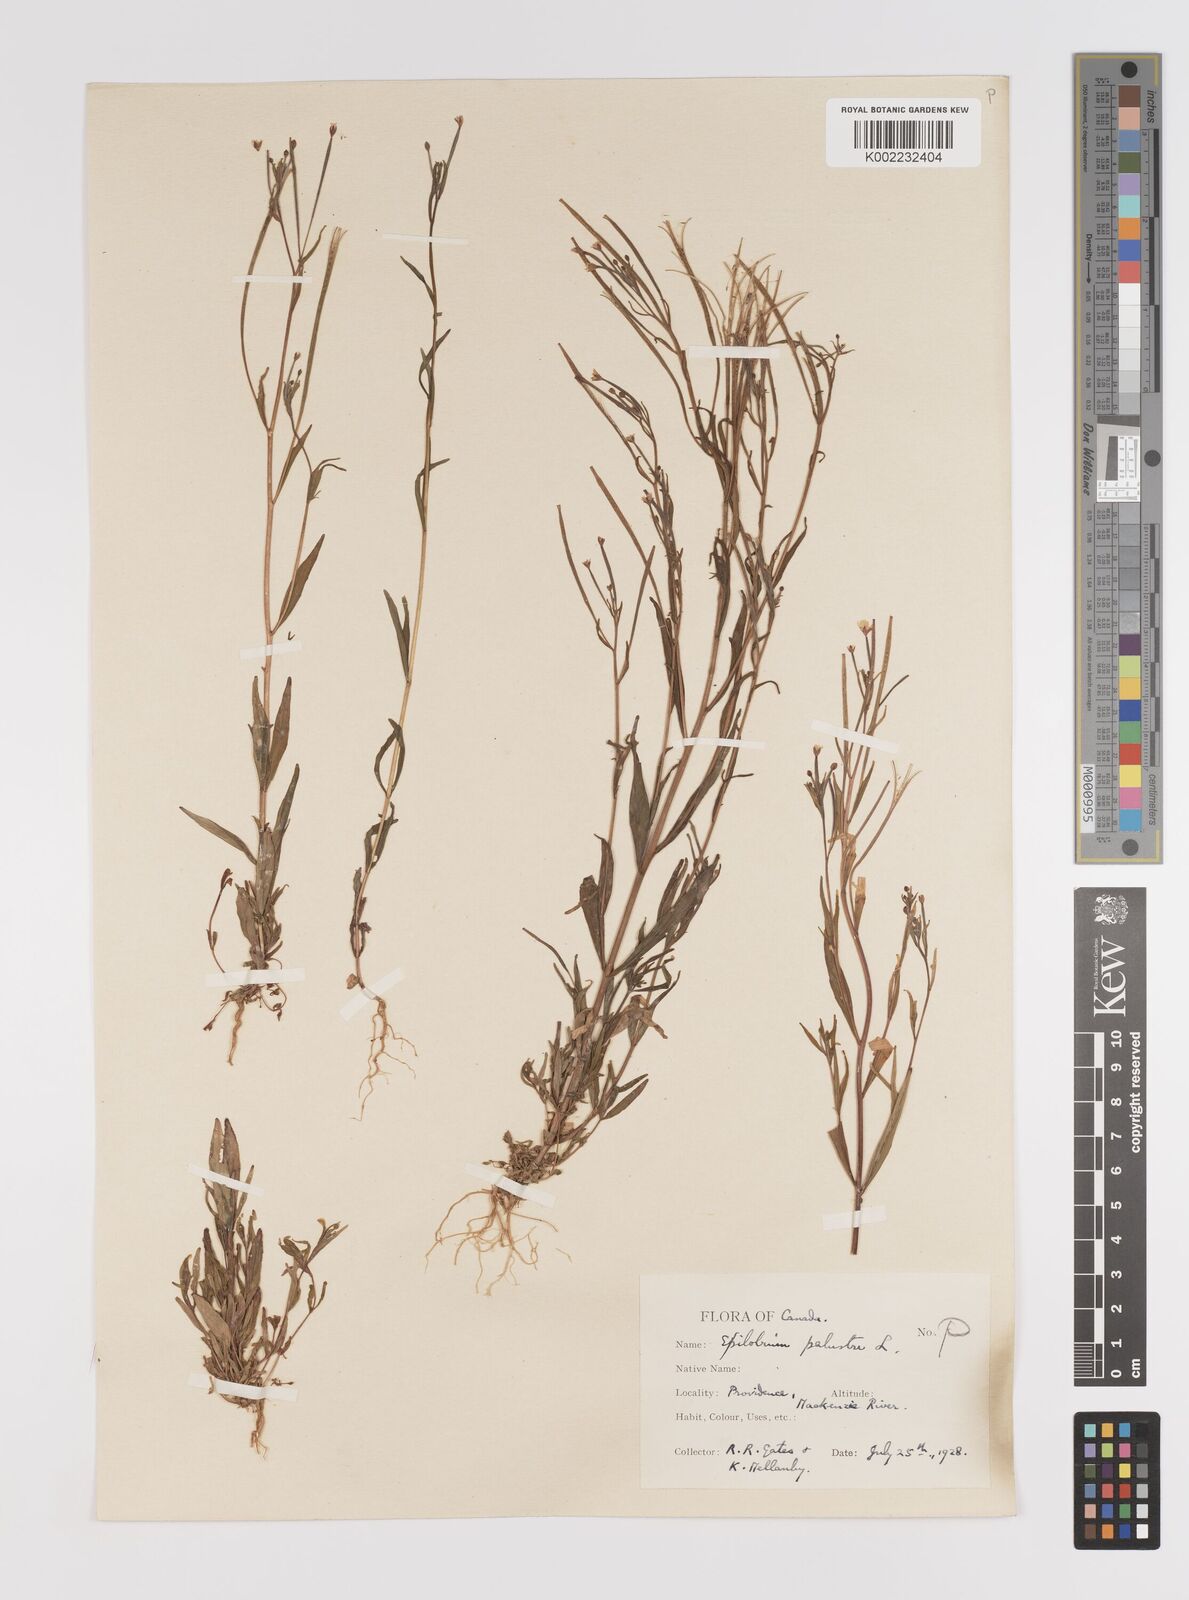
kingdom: Plantae
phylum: Tracheophyta
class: Magnoliopsida
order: Myrtales
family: Onagraceae
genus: Epilobium
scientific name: Epilobium palustre
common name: Marsh willowherb
